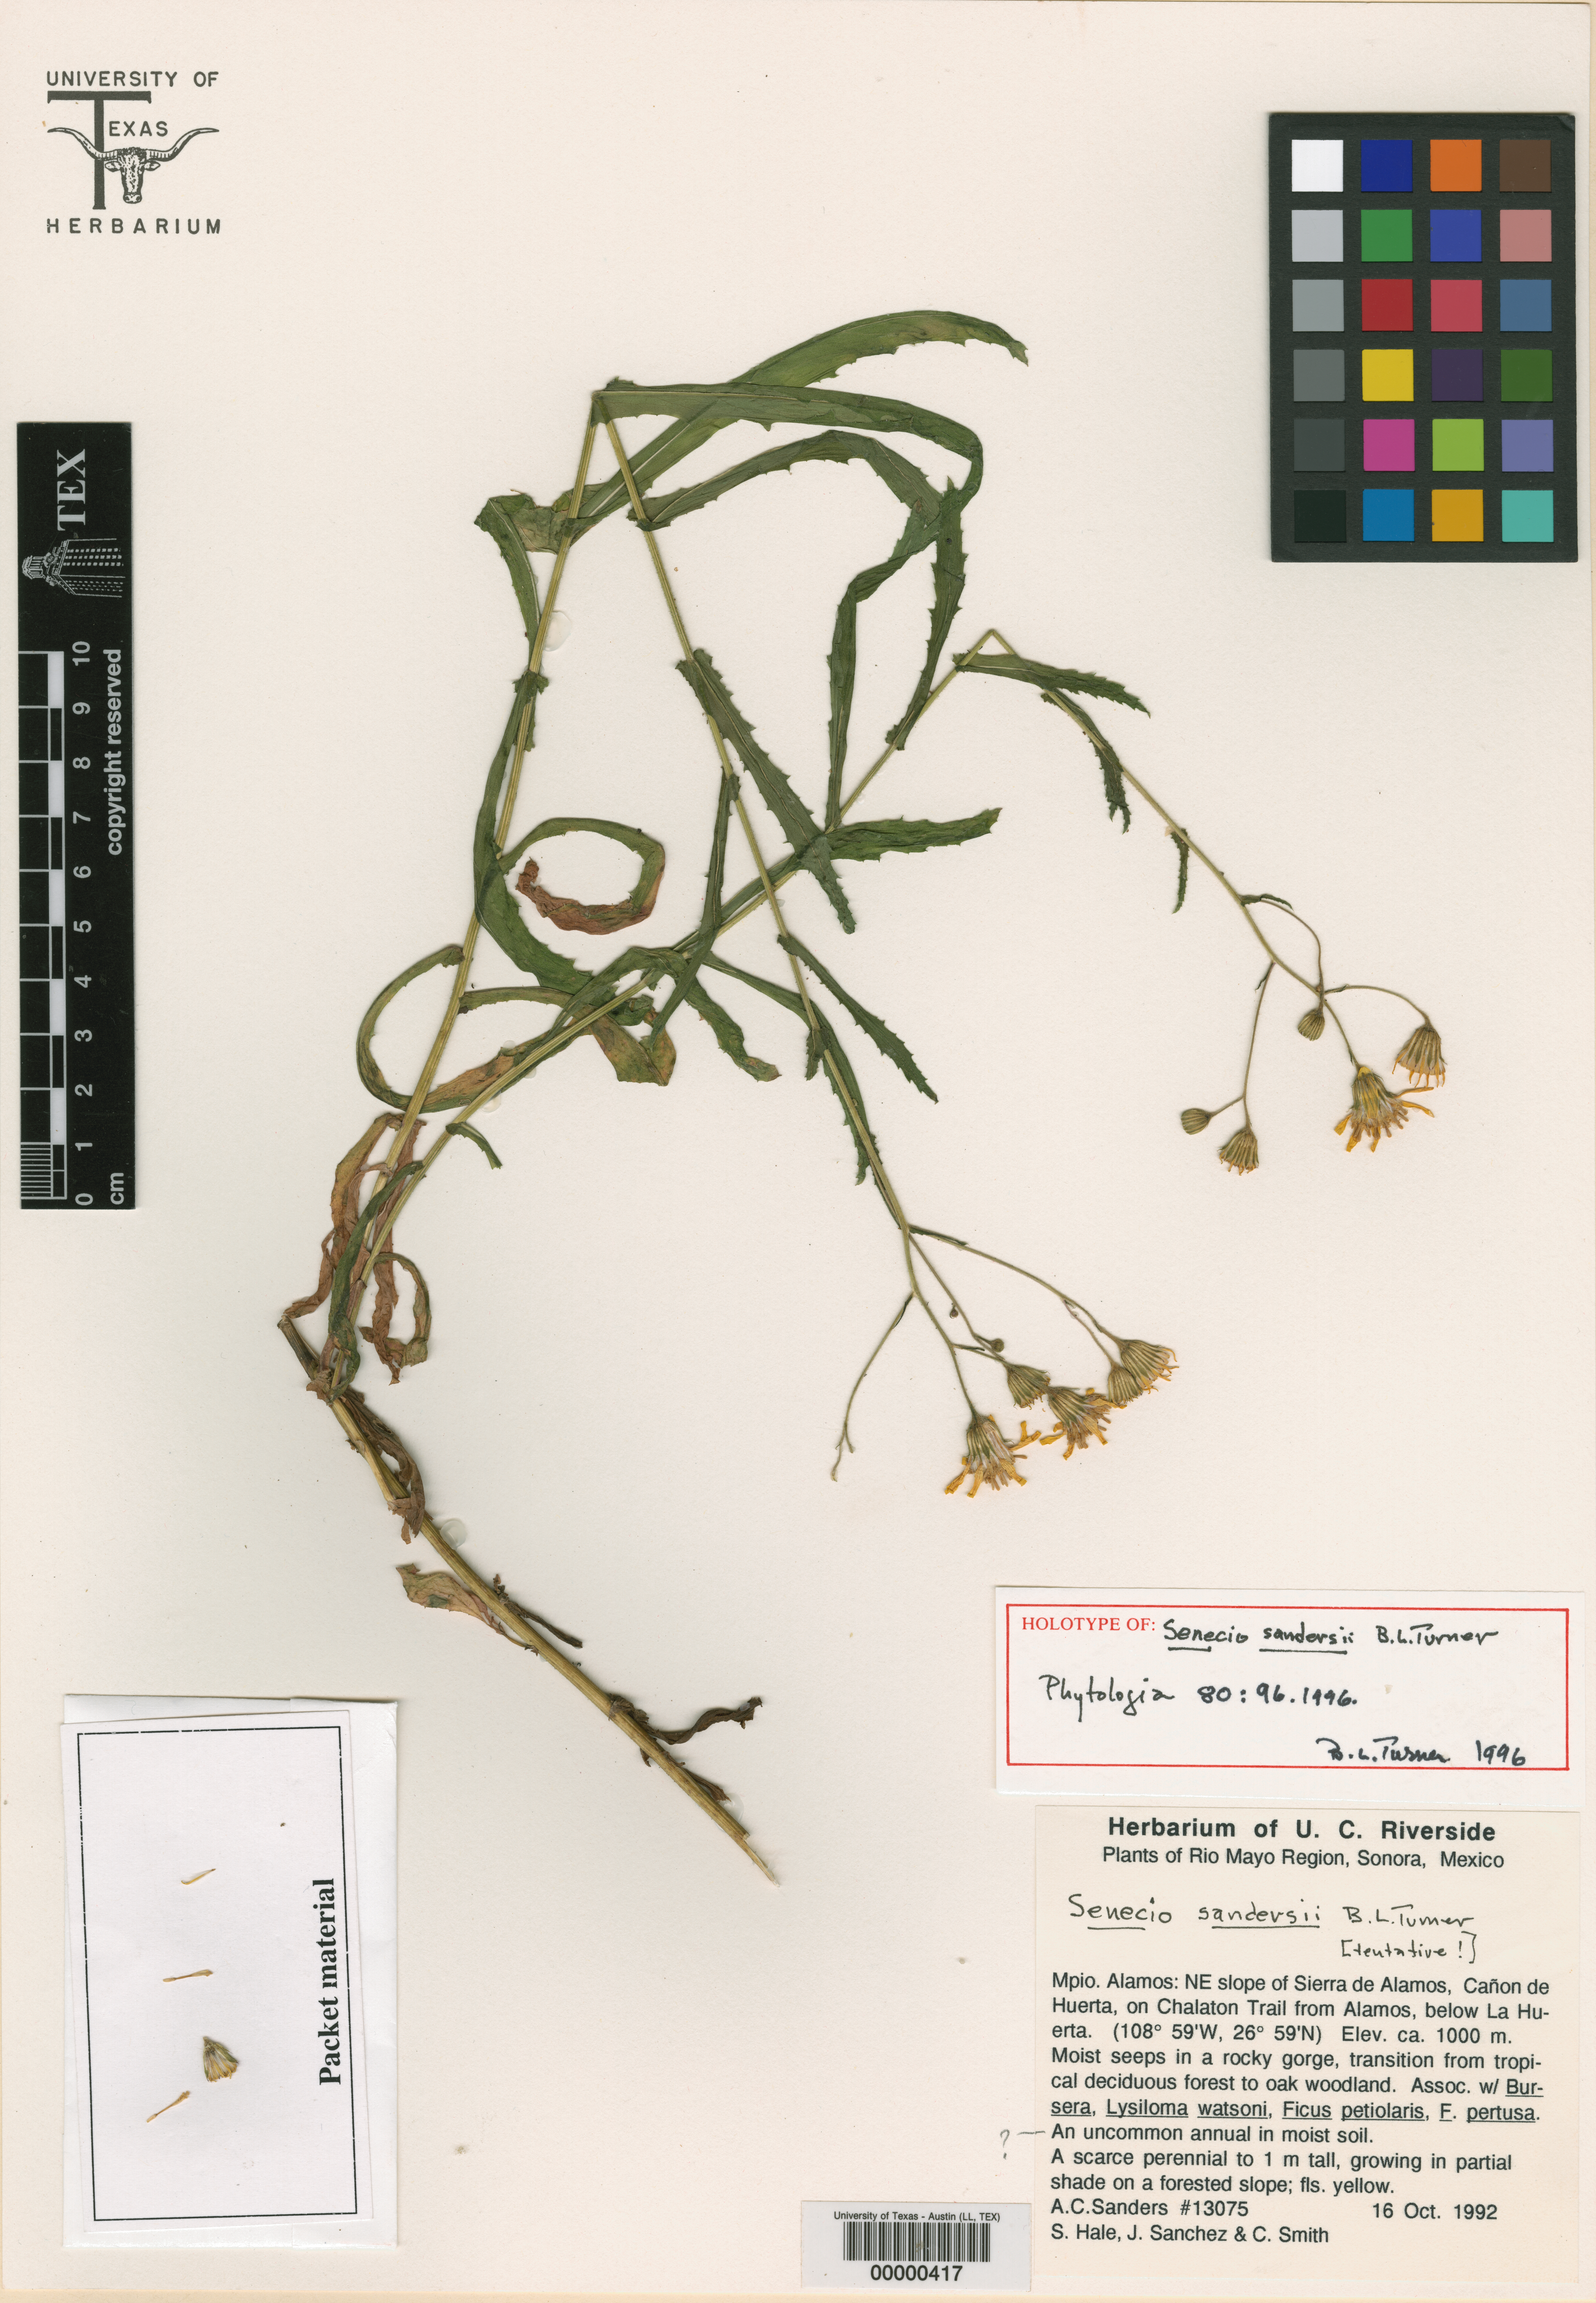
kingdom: Plantae
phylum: Tracheophyta
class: Magnoliopsida
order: Malpighiales
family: Hypericaceae
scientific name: Hypericaceae
